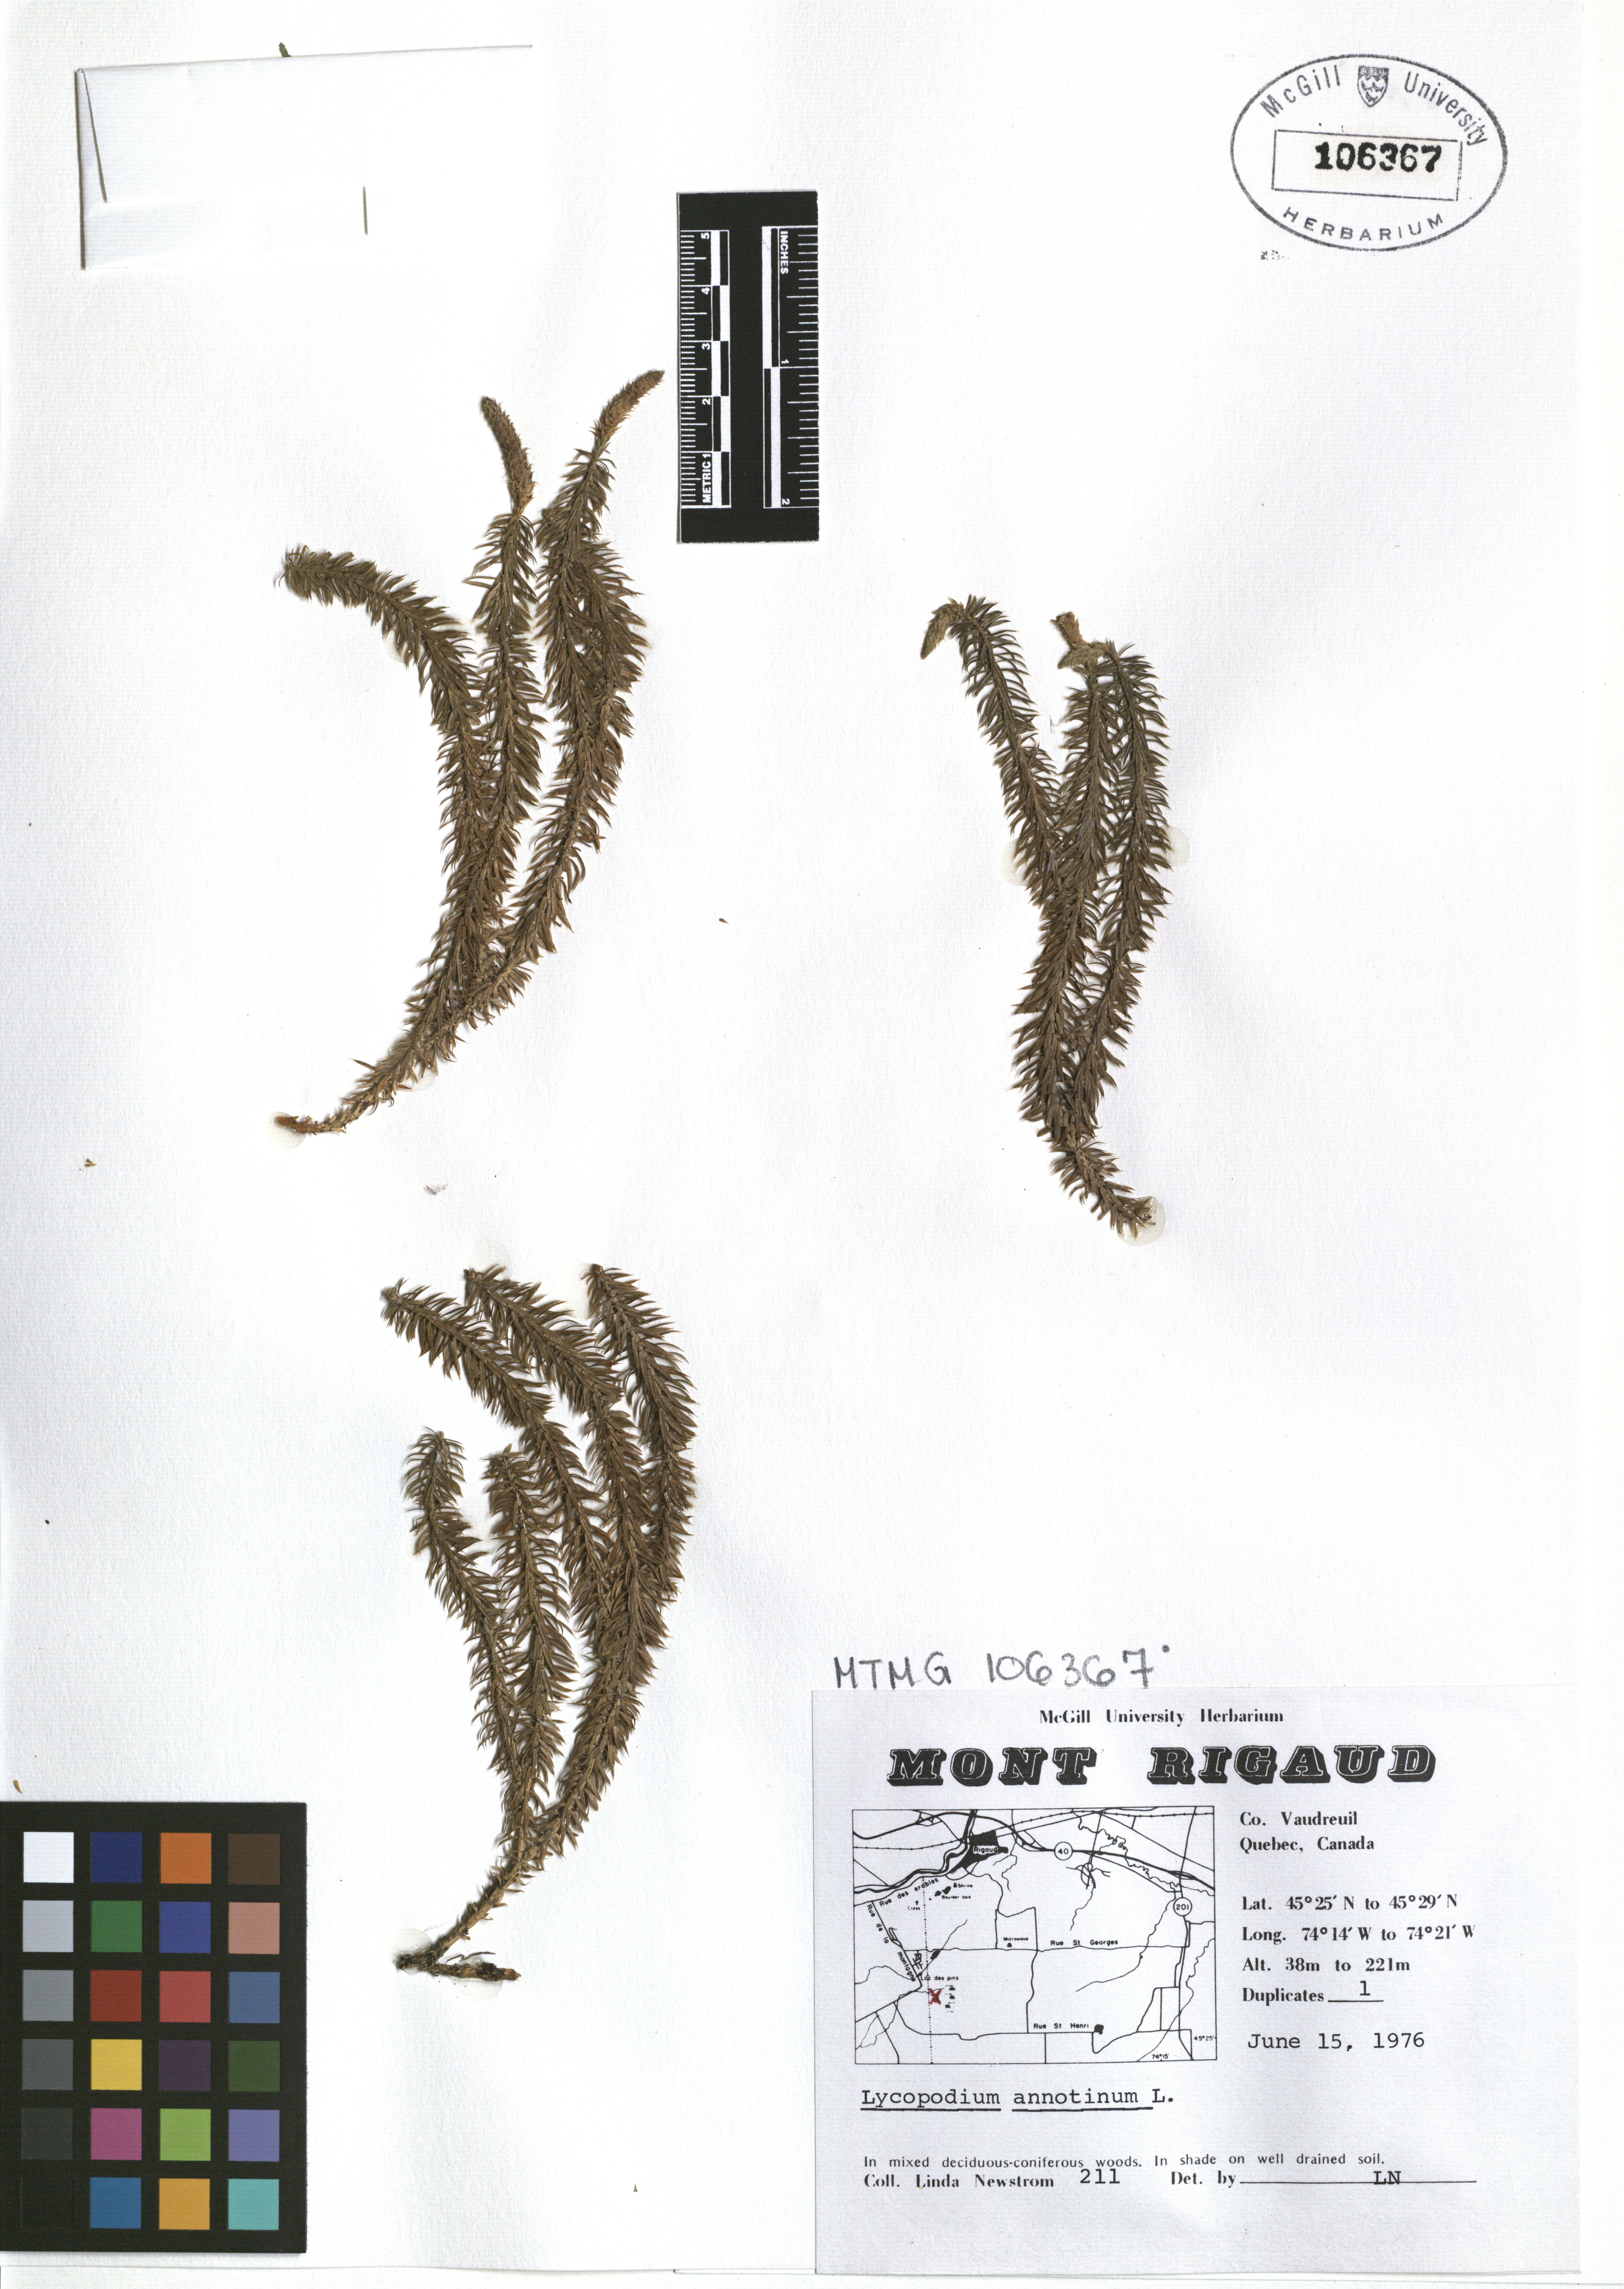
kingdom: Plantae
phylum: Tracheophyta
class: Lycopodiopsida
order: Lycopodiales
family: Lycopodiaceae
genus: Spinulum
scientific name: Spinulum annotinum
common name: Interrupted club-moss
